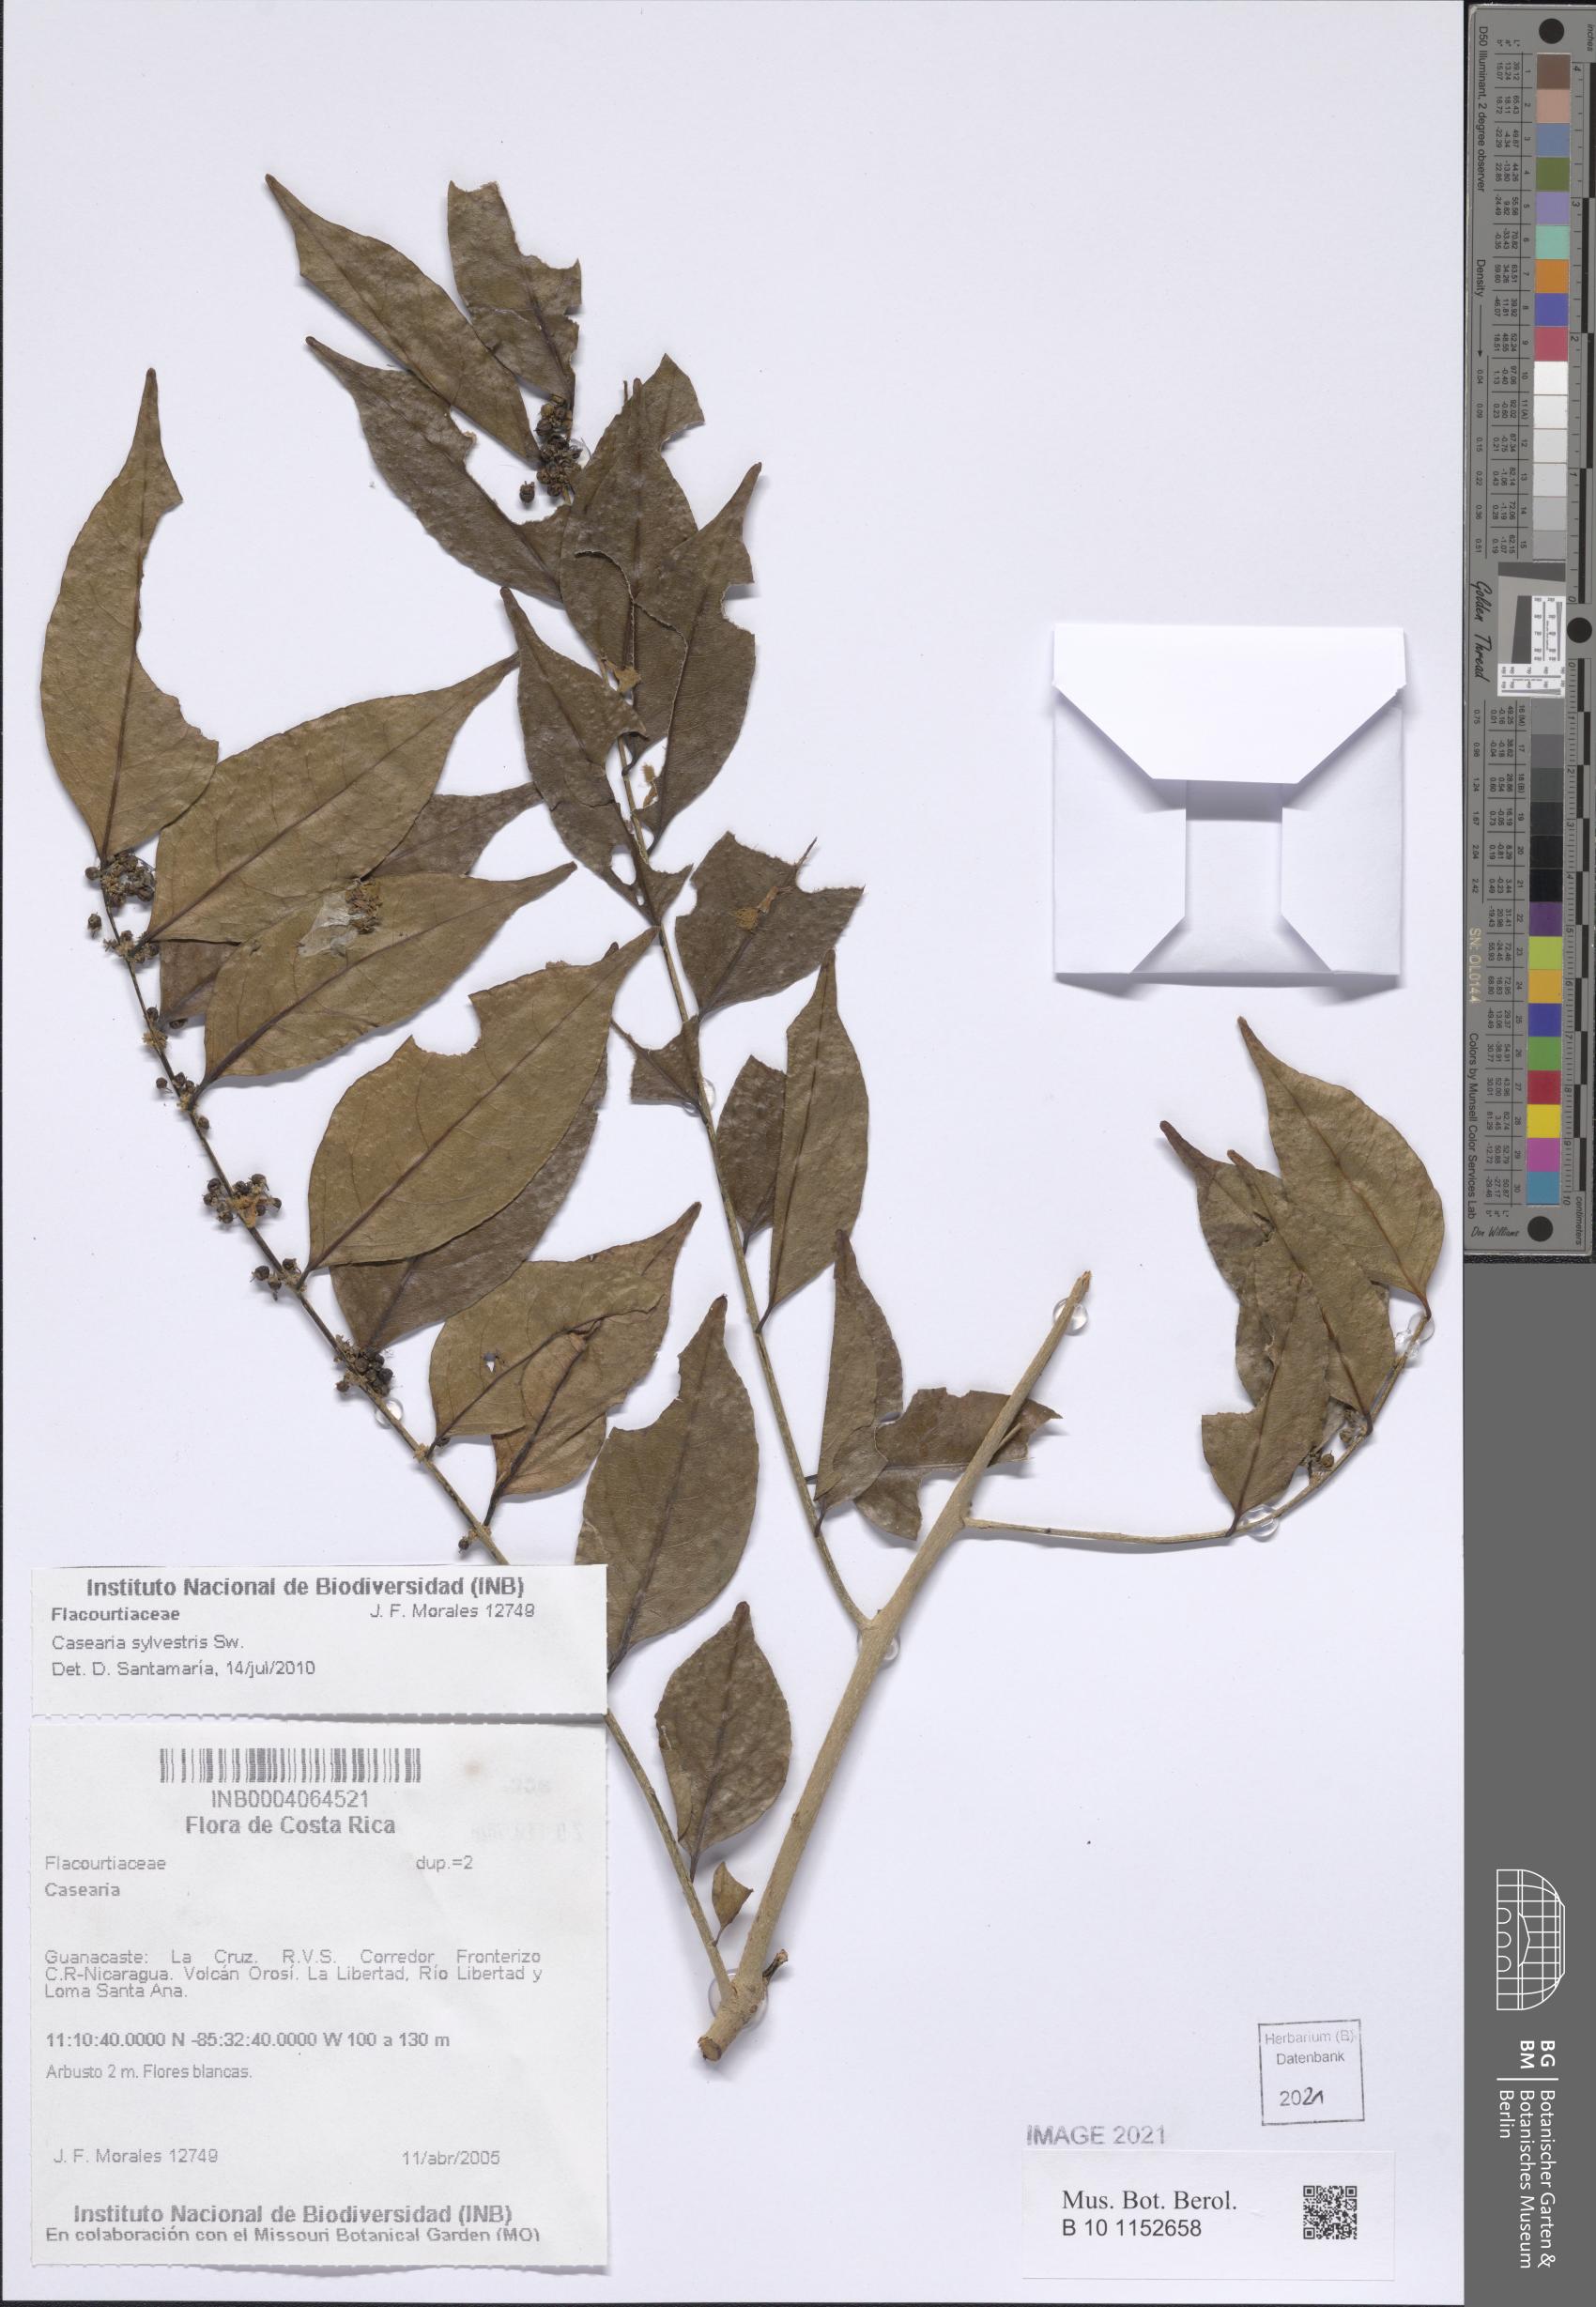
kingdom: Plantae
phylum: Tracheophyta
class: Magnoliopsida
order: Malpighiales
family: Salicaceae
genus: Casearia
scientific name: Casearia sylvestris
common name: Wild sage
